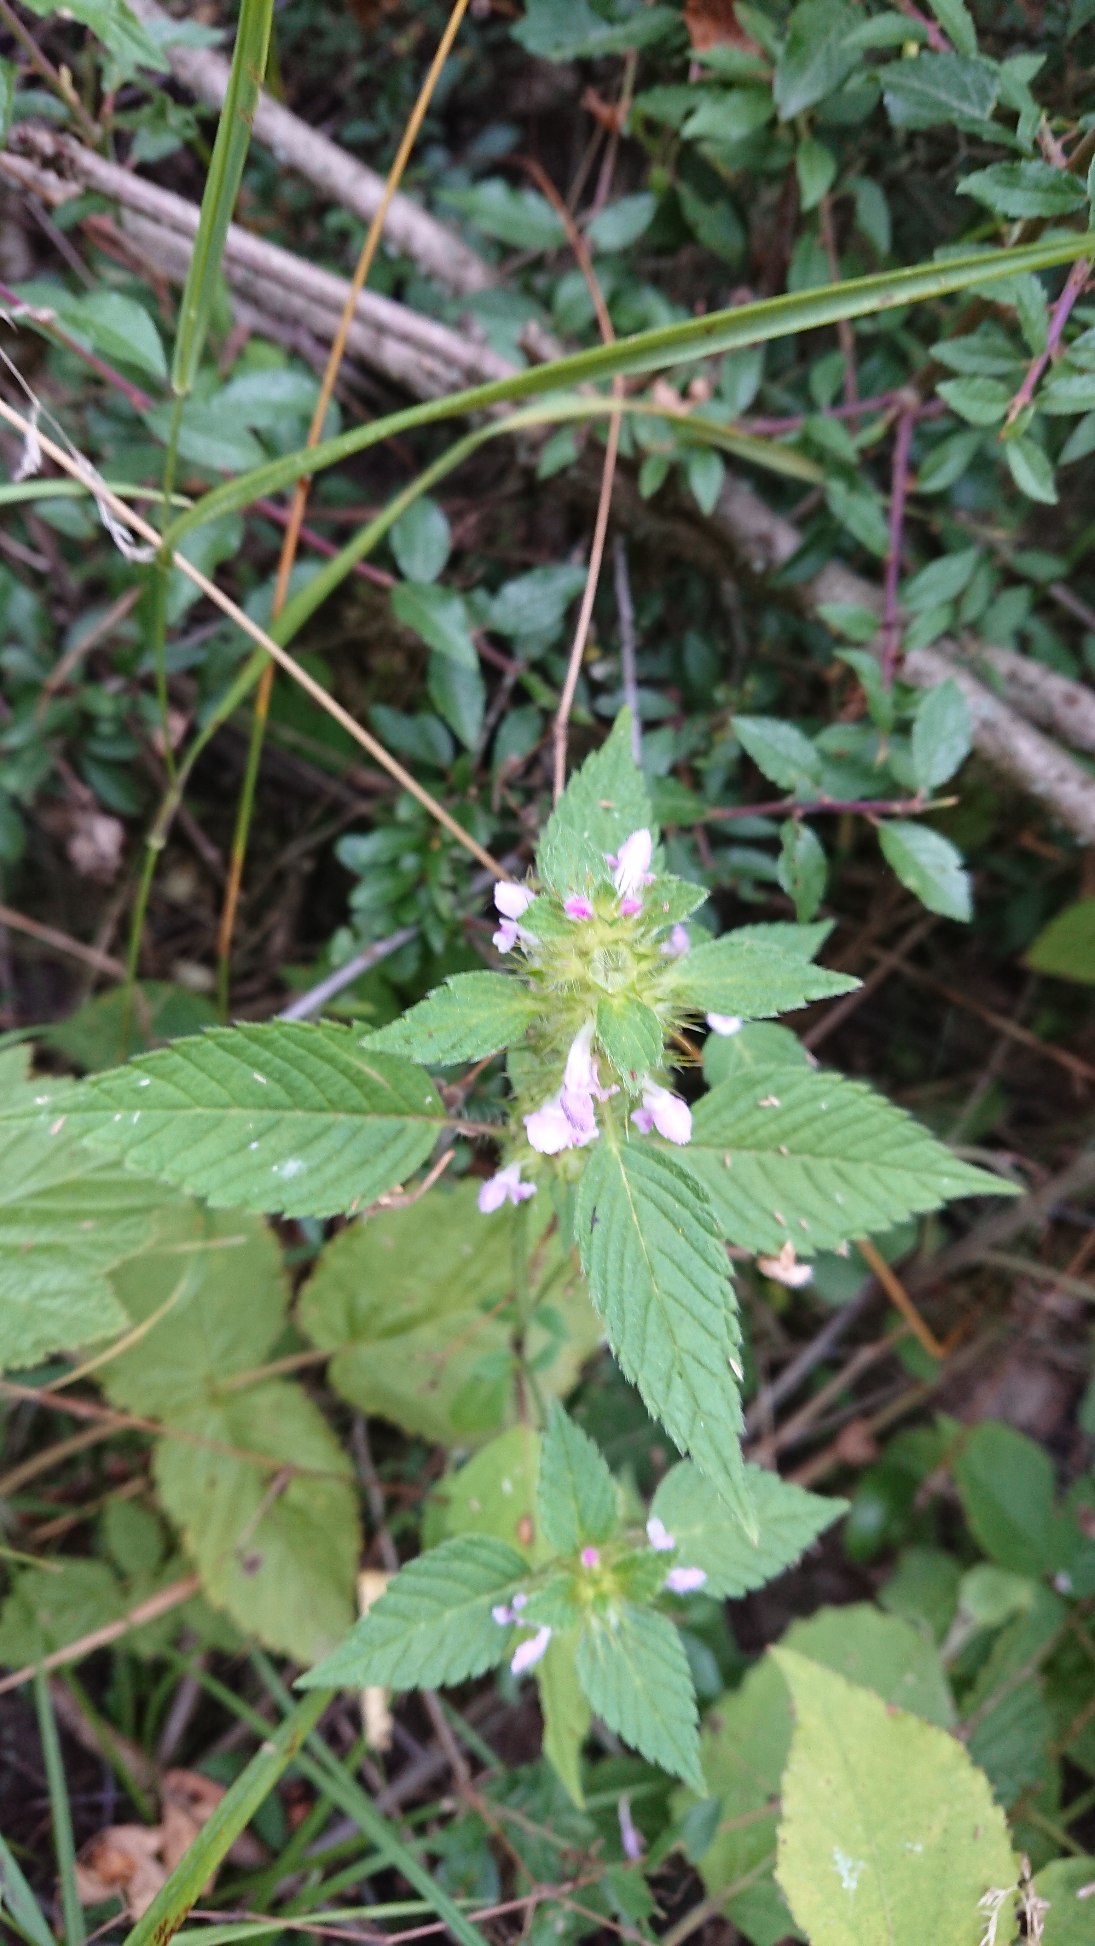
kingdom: Plantae
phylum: Tracheophyta
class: Magnoliopsida
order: Lamiales
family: Lamiaceae
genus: Galeopsis
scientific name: Galeopsis
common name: Hanekroslægten
